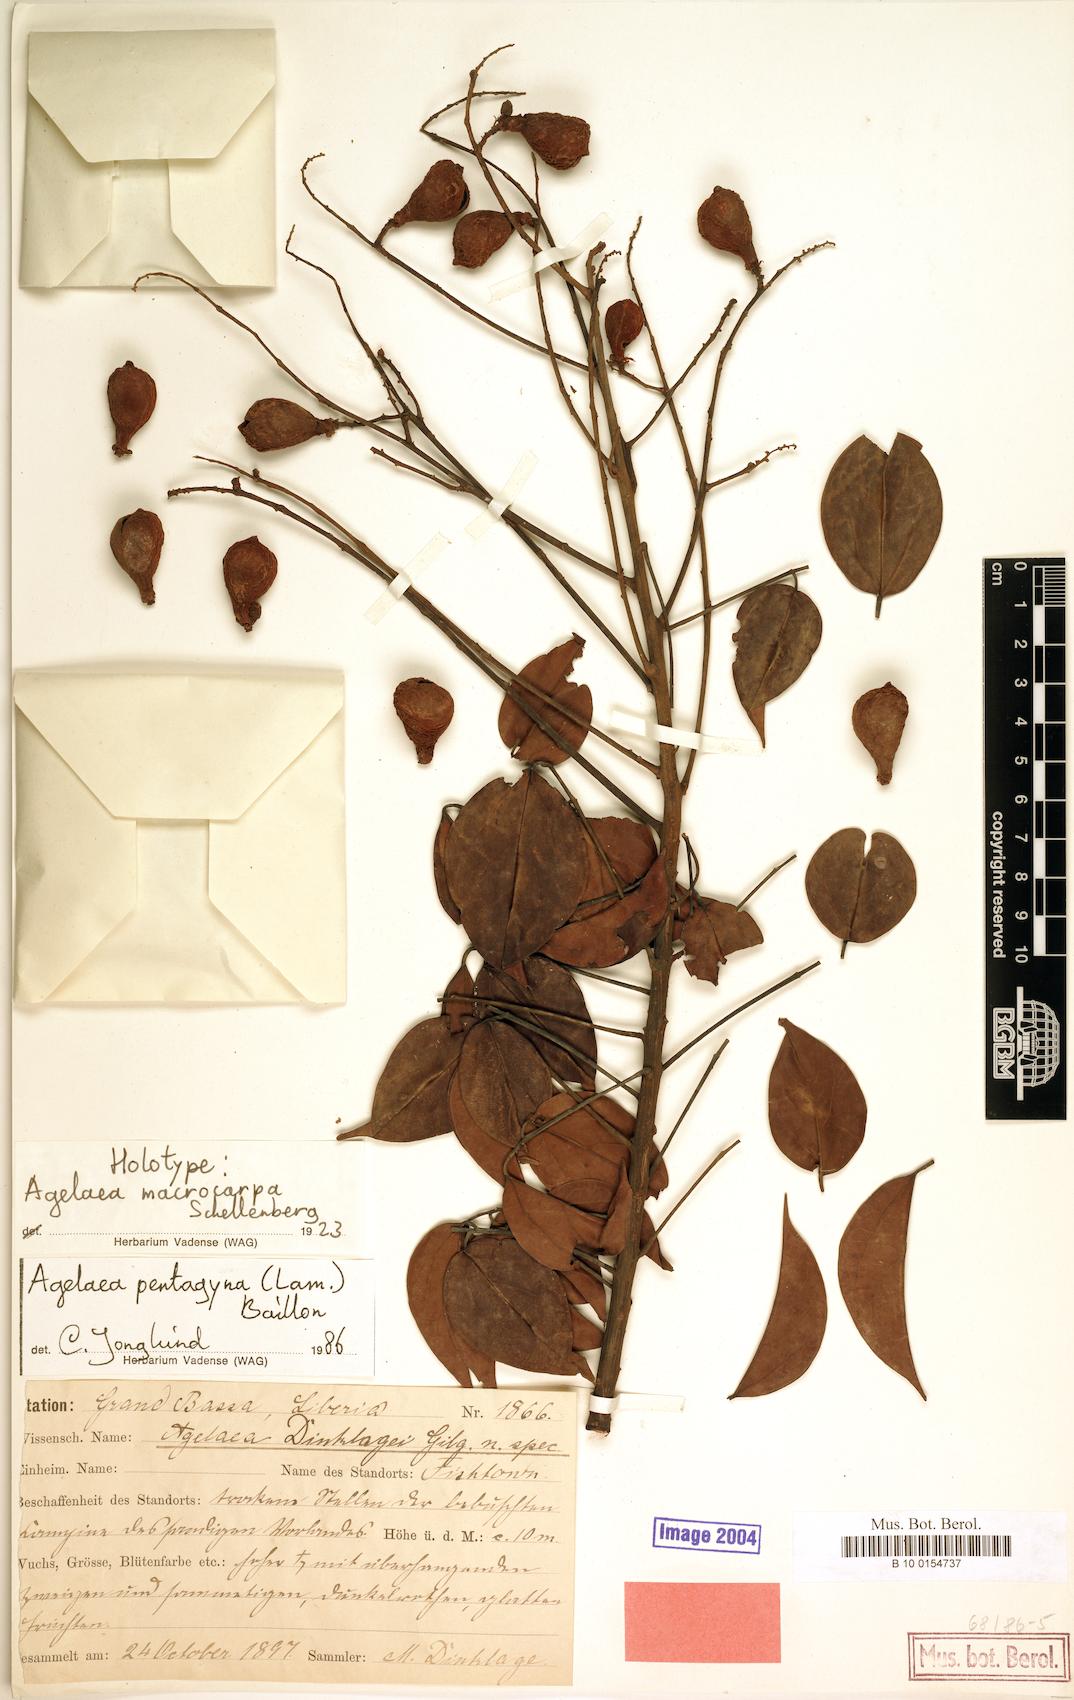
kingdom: Plantae
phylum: Tracheophyta
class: Magnoliopsida
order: Oxalidales
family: Connaraceae
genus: Agelaea
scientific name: Agelaea pentagyna
